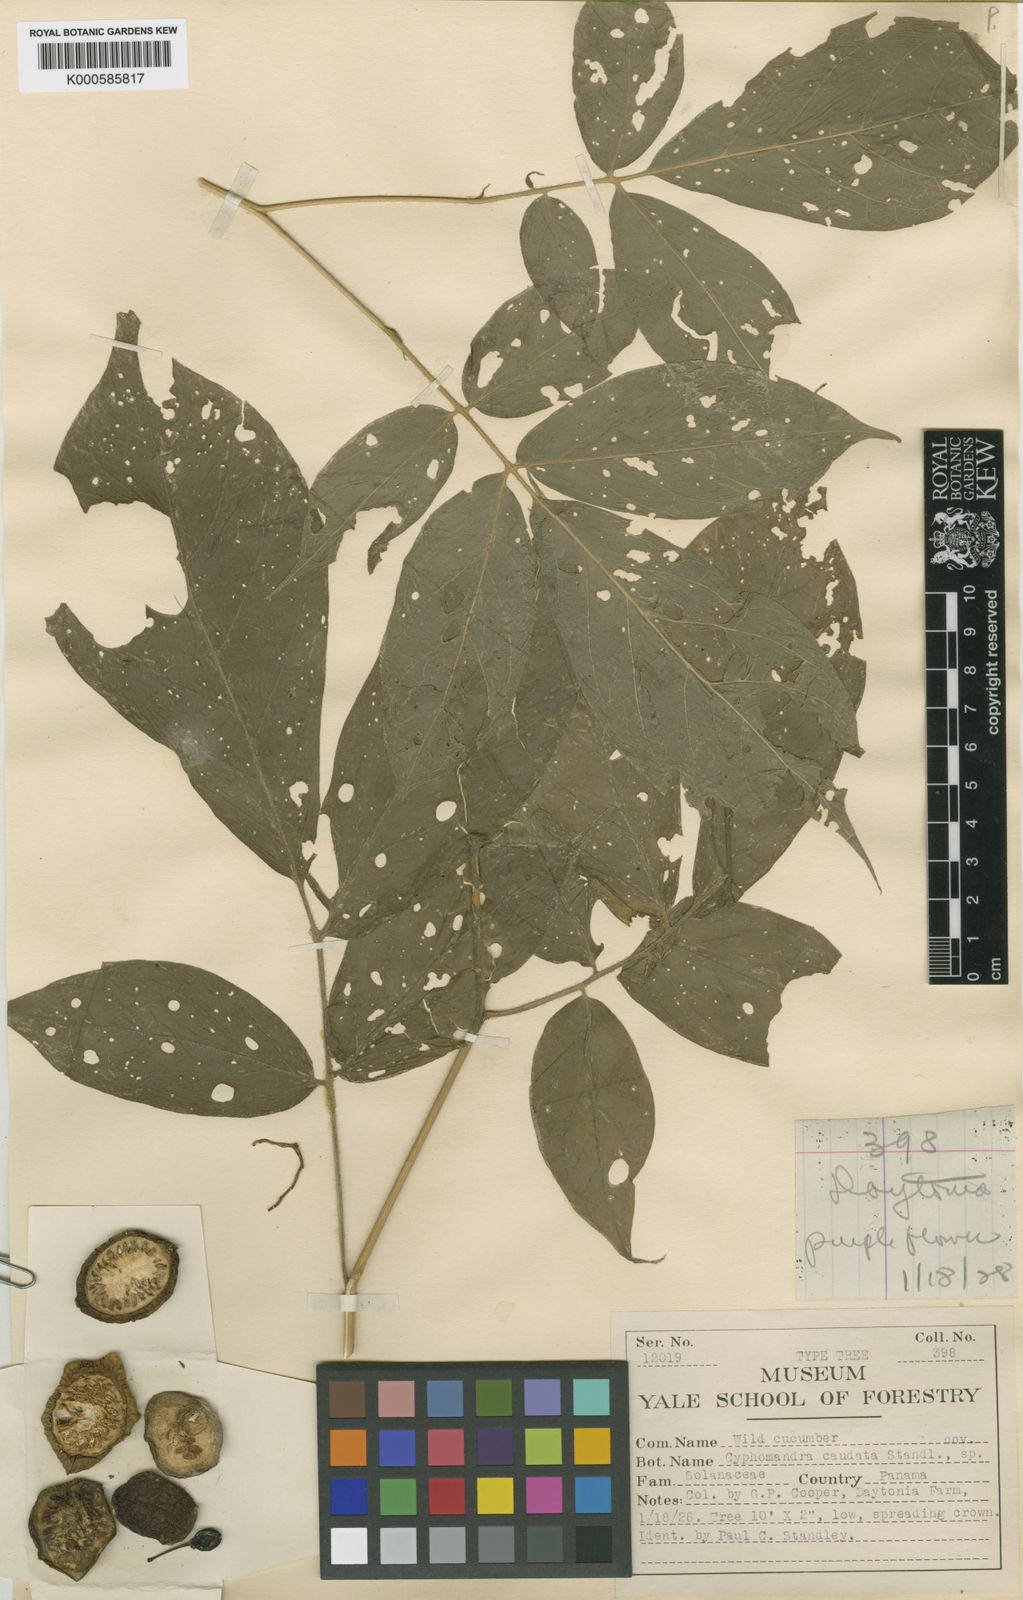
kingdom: Plantae
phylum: Tracheophyta
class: Magnoliopsida
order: Solanales
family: Solanaceae
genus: Solanum
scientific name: Solanum diversifolium
